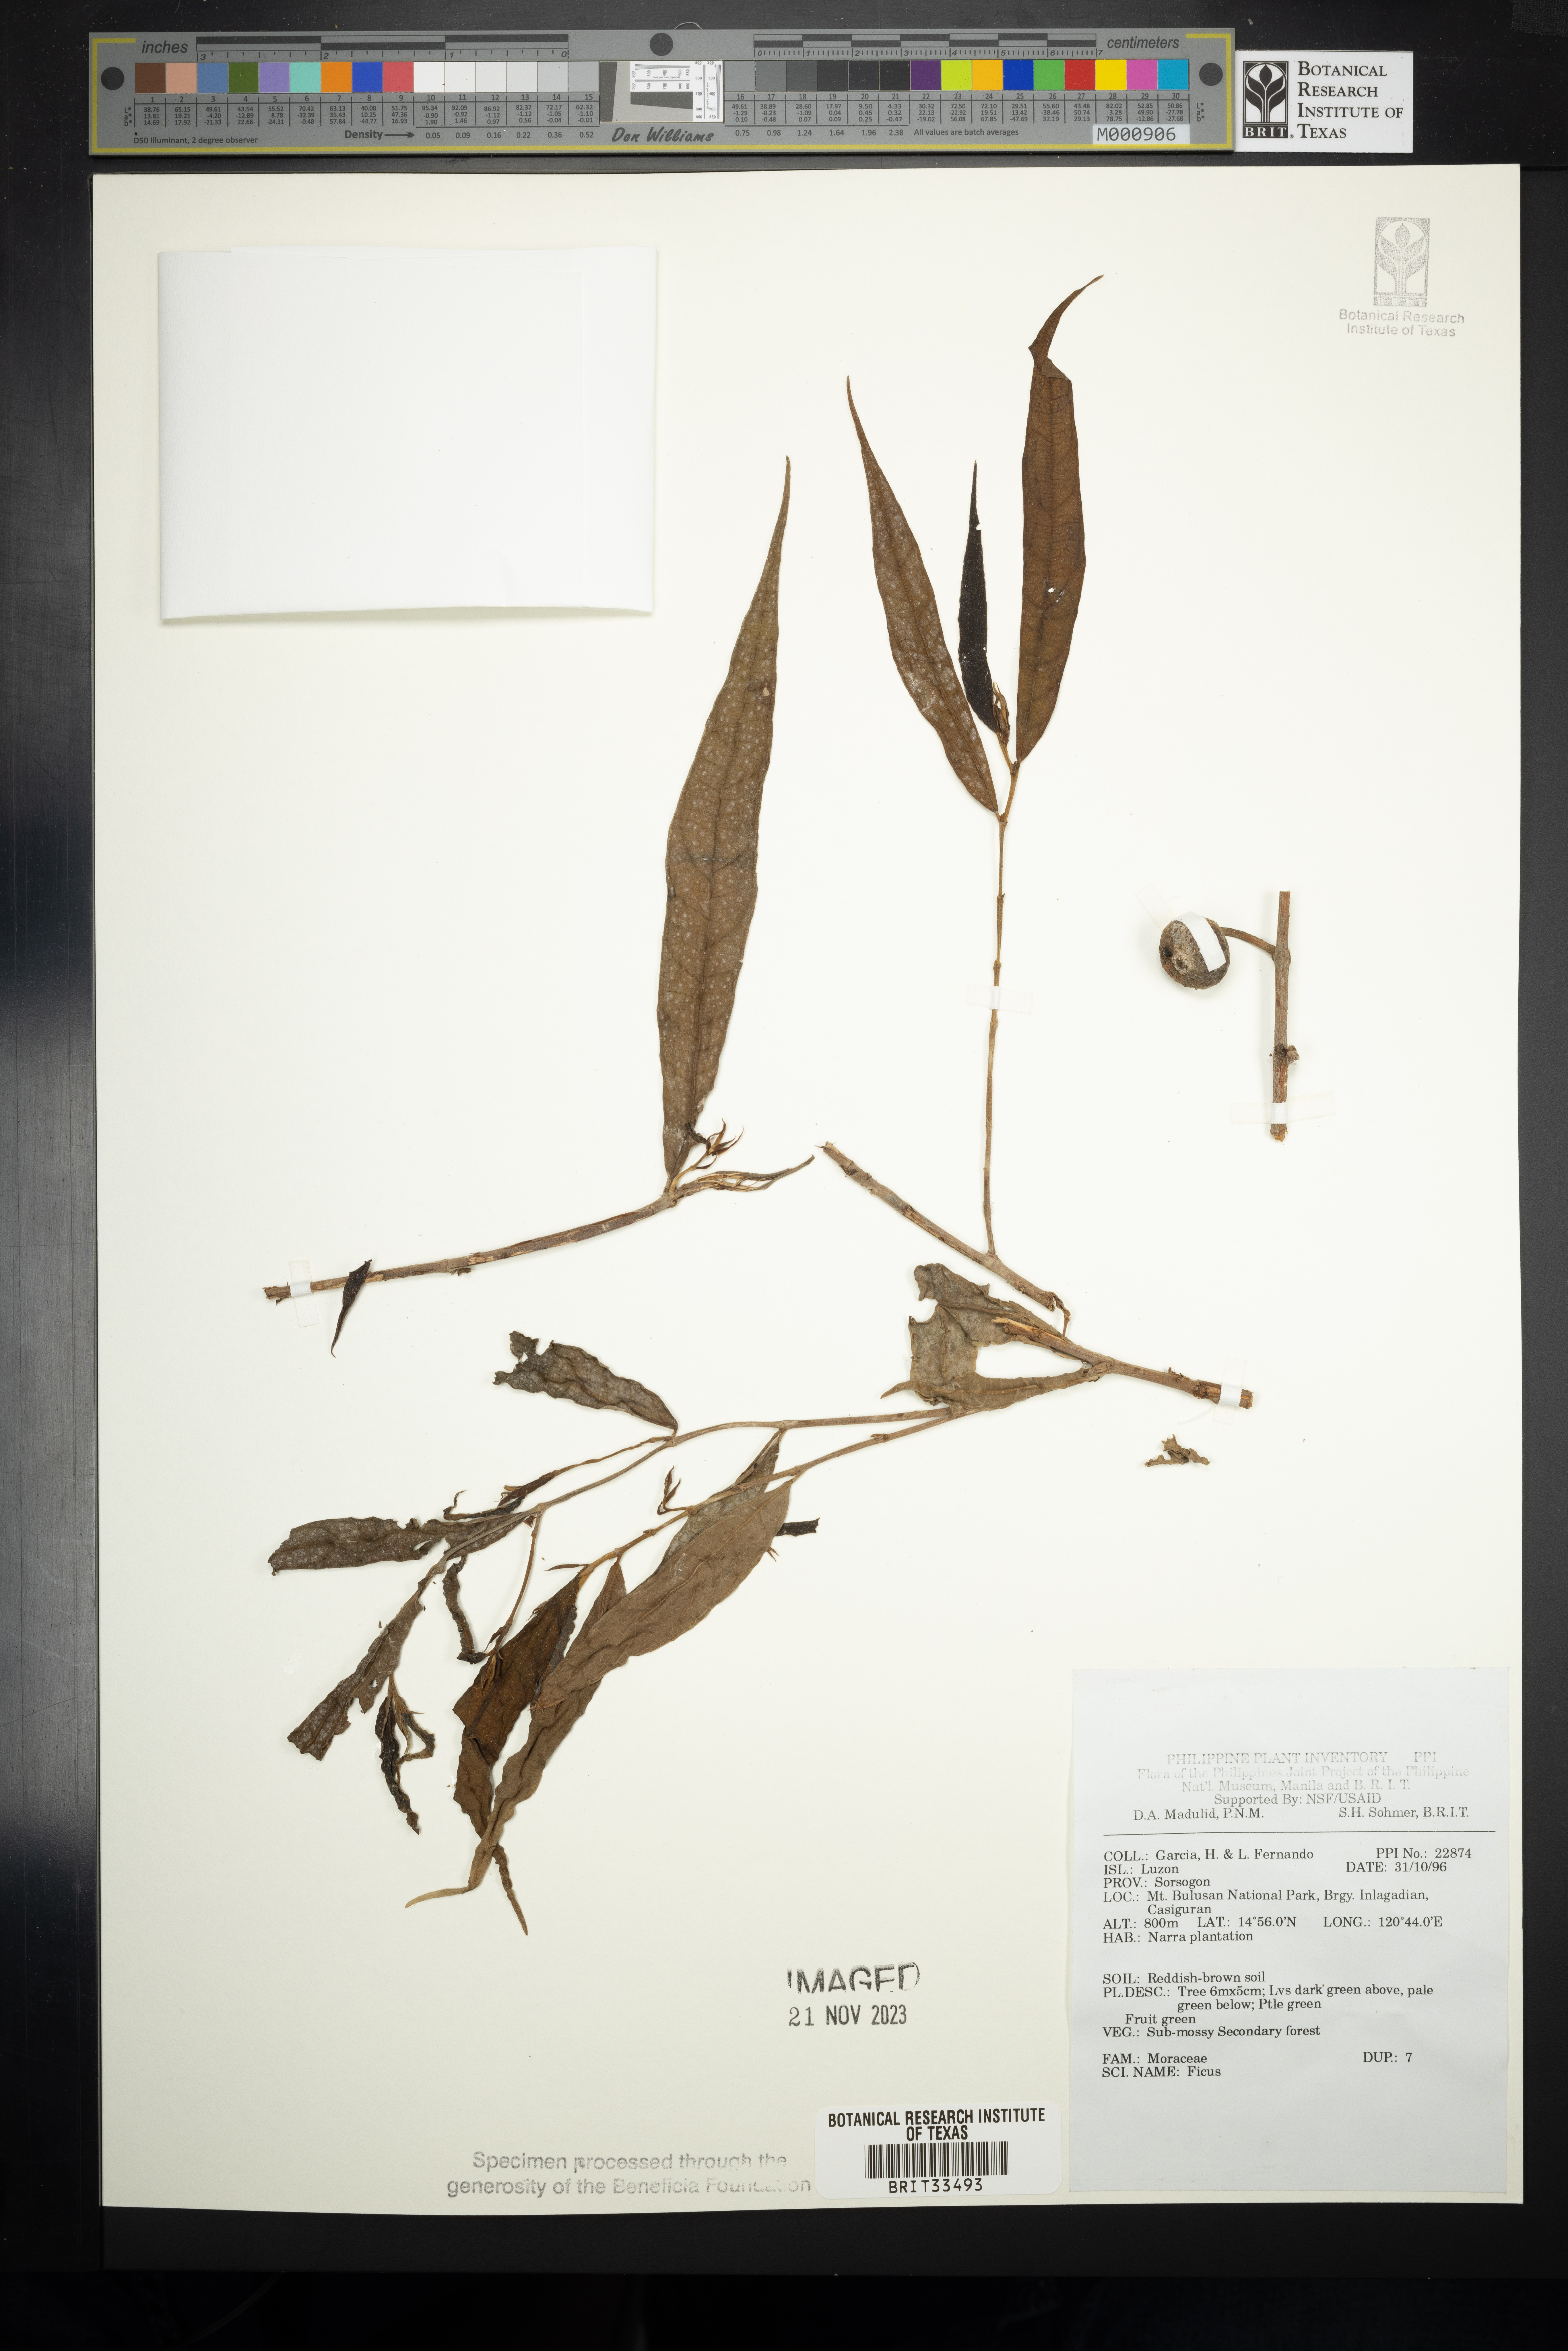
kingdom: Plantae
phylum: Tracheophyta
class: Magnoliopsida
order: Rosales
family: Moraceae
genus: Ficus
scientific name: Ficus
